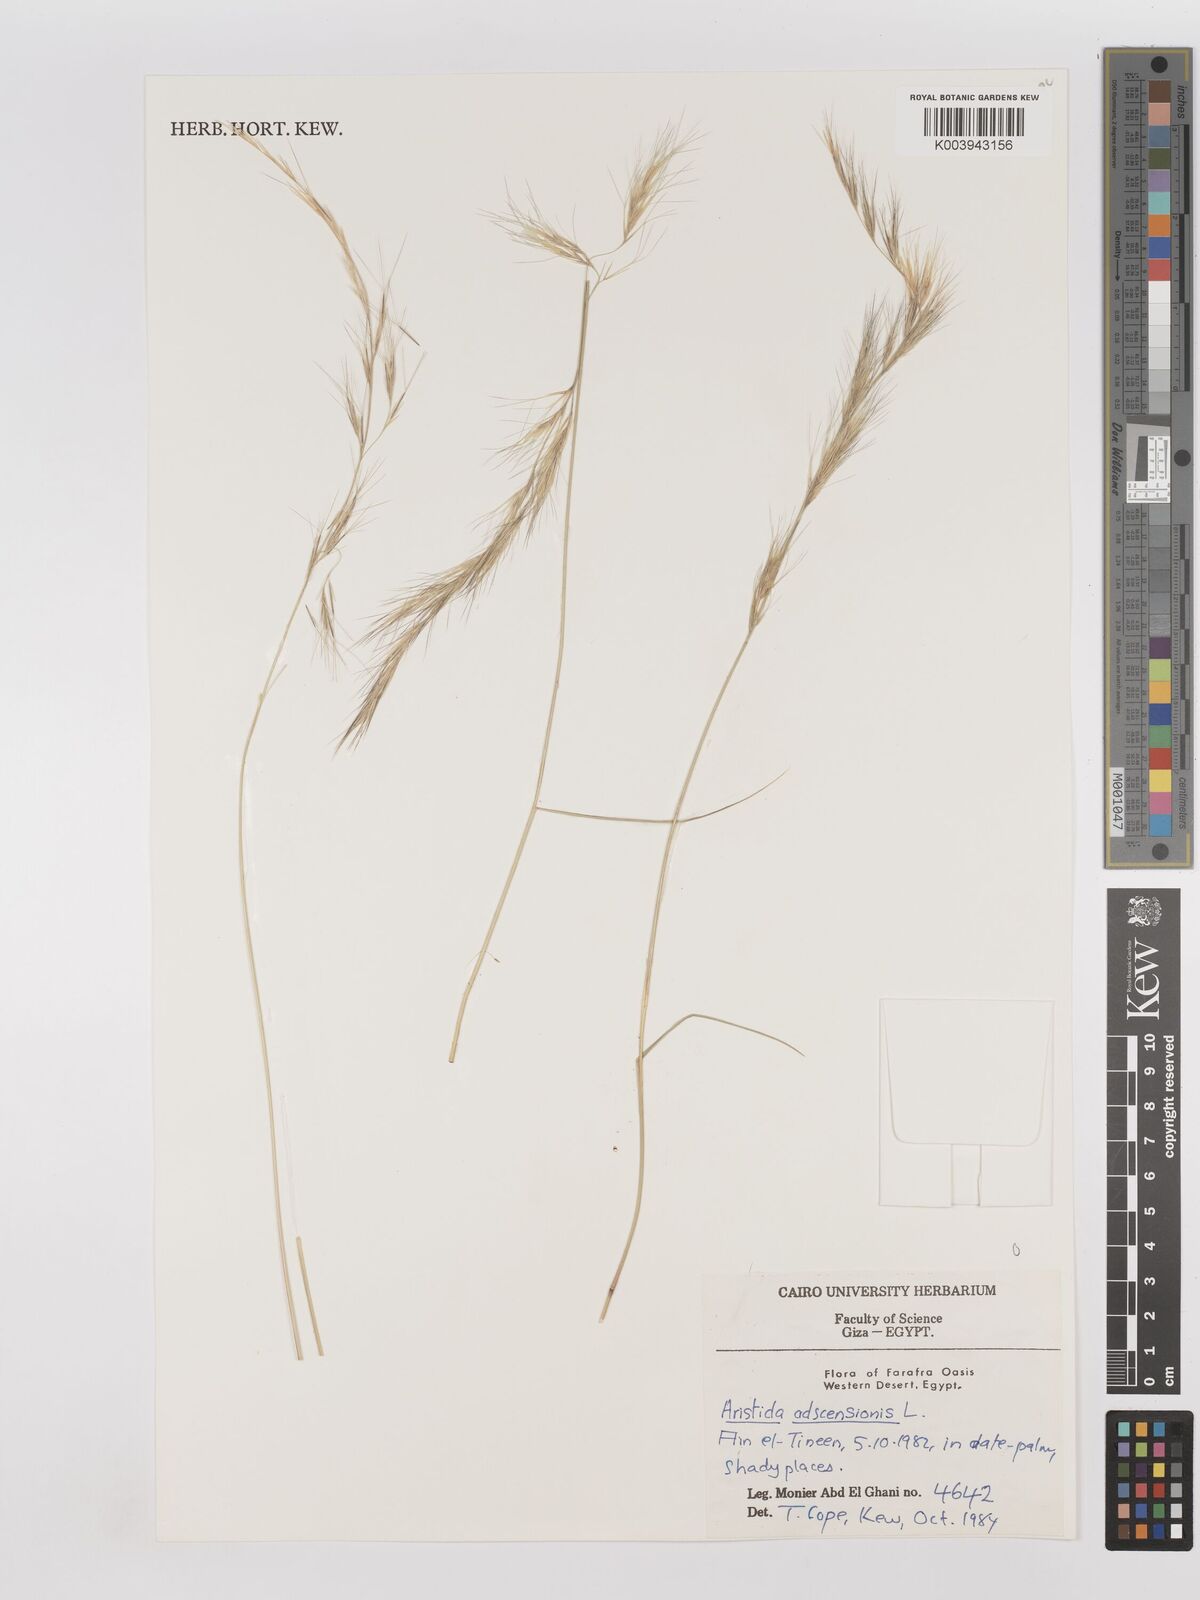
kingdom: Plantae
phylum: Tracheophyta
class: Liliopsida
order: Poales
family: Poaceae
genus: Aristida
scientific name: Aristida adscensionis
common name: Sixweeks threeawn
